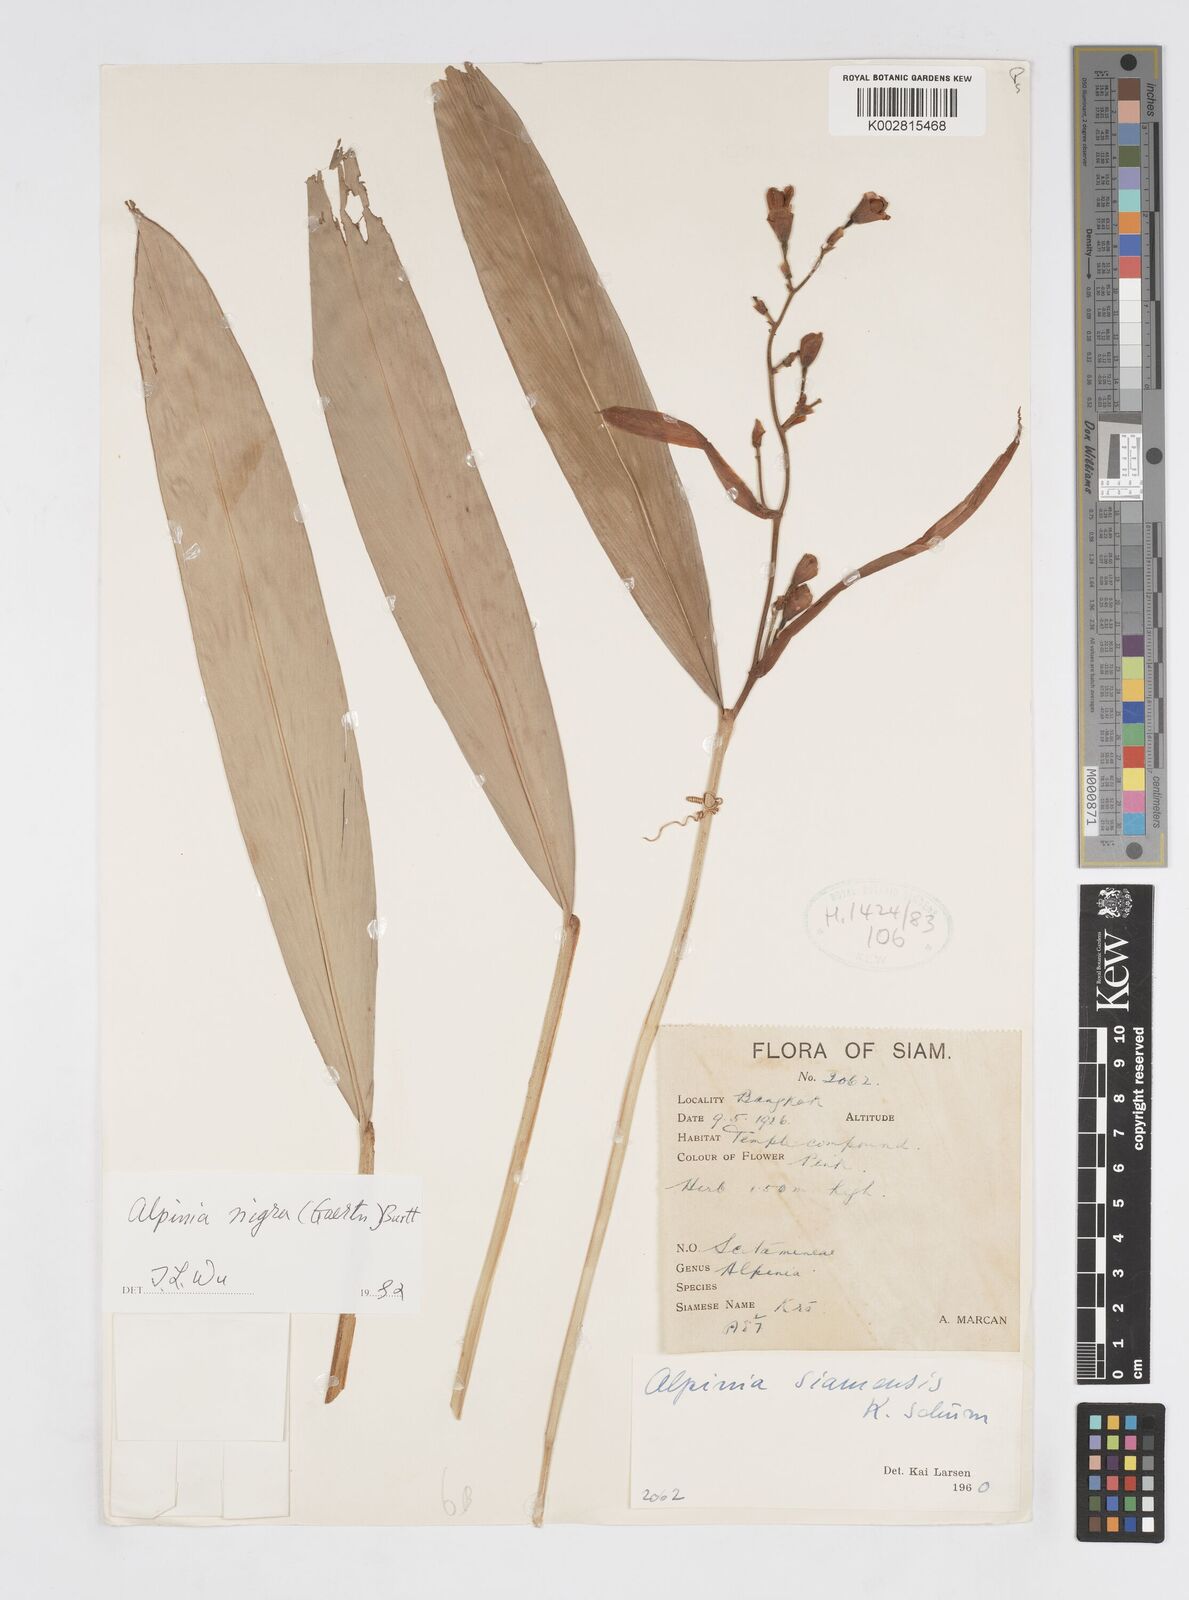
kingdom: Plantae
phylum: Tracheophyta
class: Liliopsida
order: Zingiberales
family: Zingiberaceae
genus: Alpinia
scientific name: Alpinia nigra
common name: Black fruited galanga
